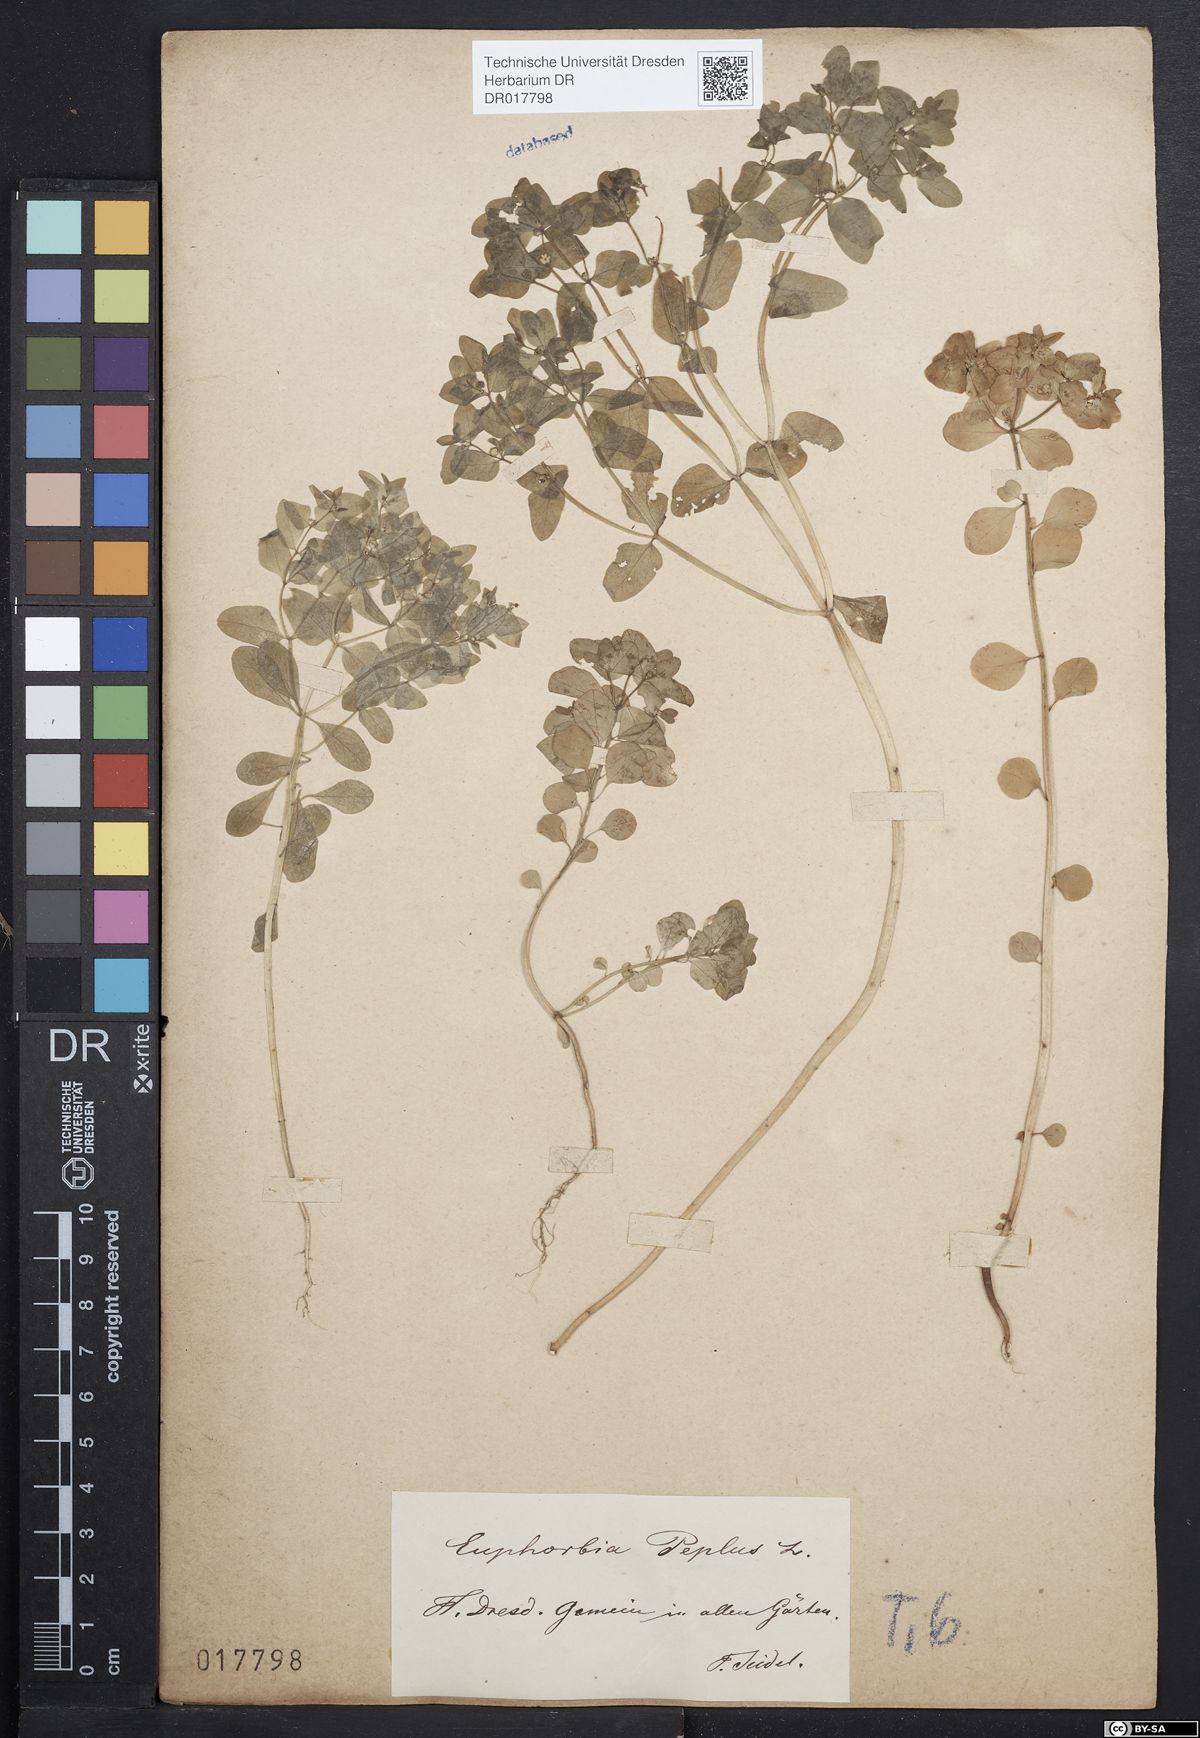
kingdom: Plantae
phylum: Tracheophyta
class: Magnoliopsida
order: Malpighiales
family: Euphorbiaceae
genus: Euphorbia
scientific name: Euphorbia peplus
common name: Petty spurge
